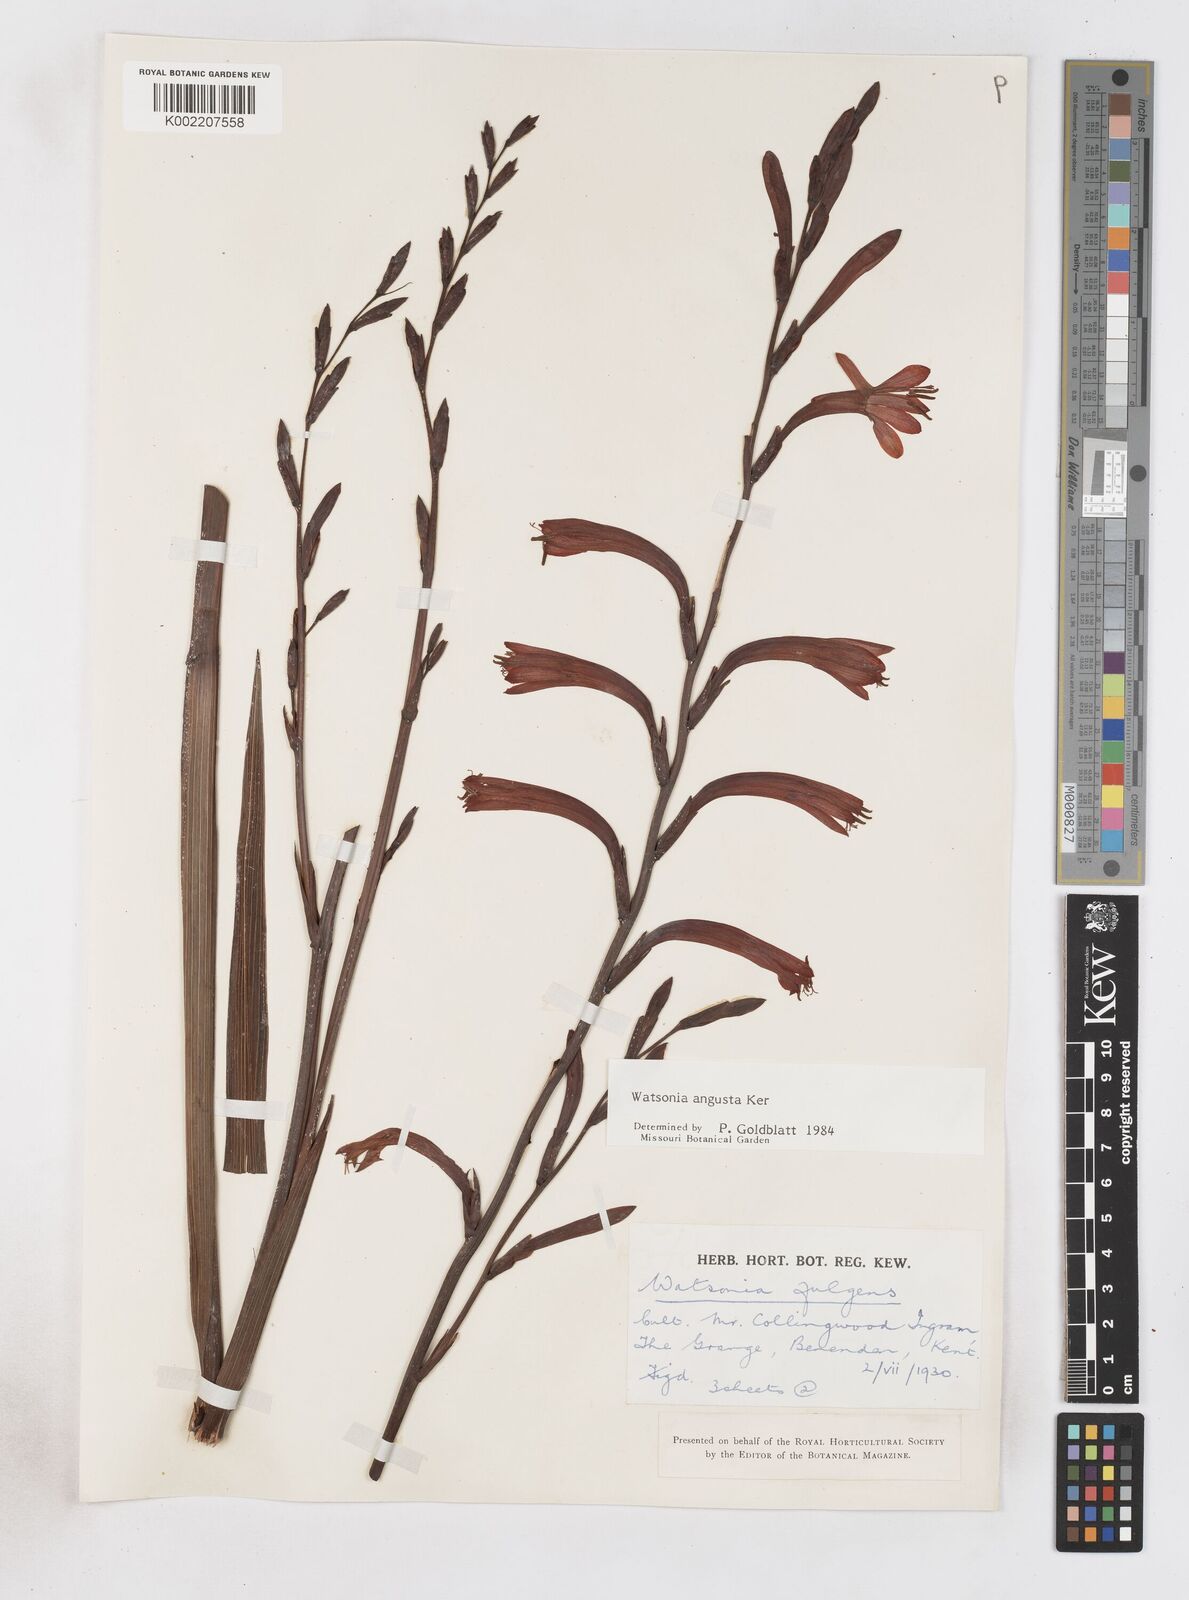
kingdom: Plantae
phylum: Tracheophyta
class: Liliopsida
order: Asparagales
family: Iridaceae
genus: Watsonia
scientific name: Watsonia angusta
